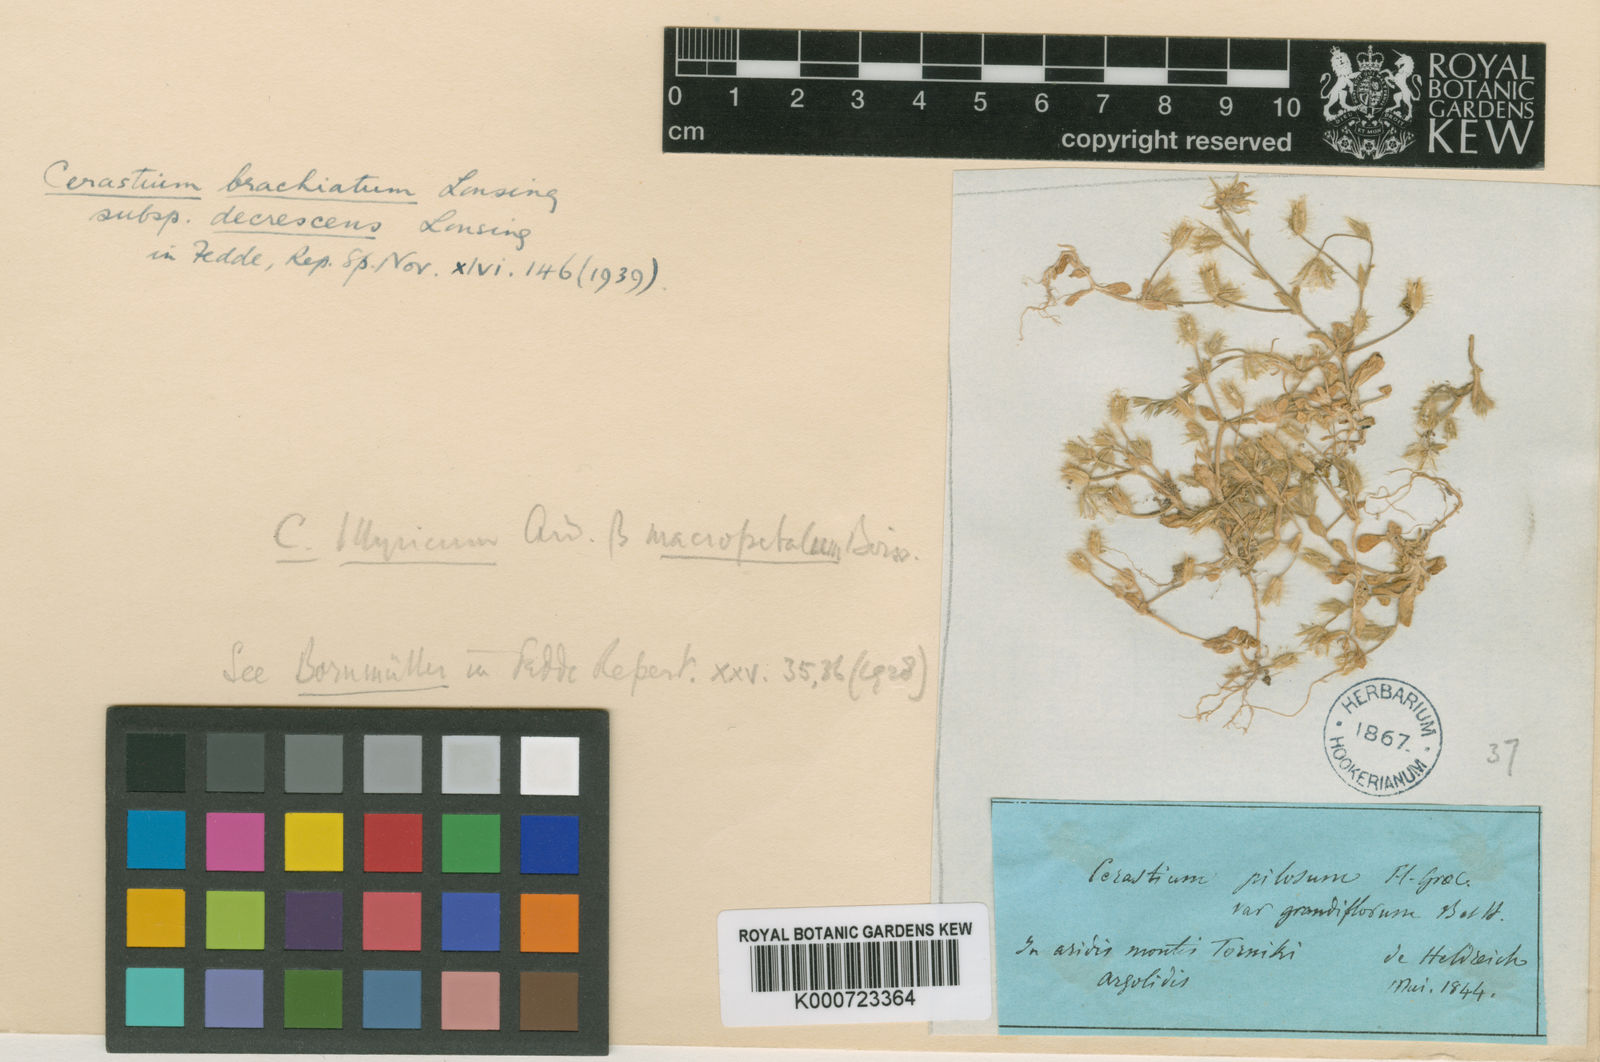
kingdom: Plantae
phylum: Tracheophyta
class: Magnoliopsida
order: Caryophyllales
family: Caryophyllaceae
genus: Cerastium
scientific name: Cerastium illyricum
